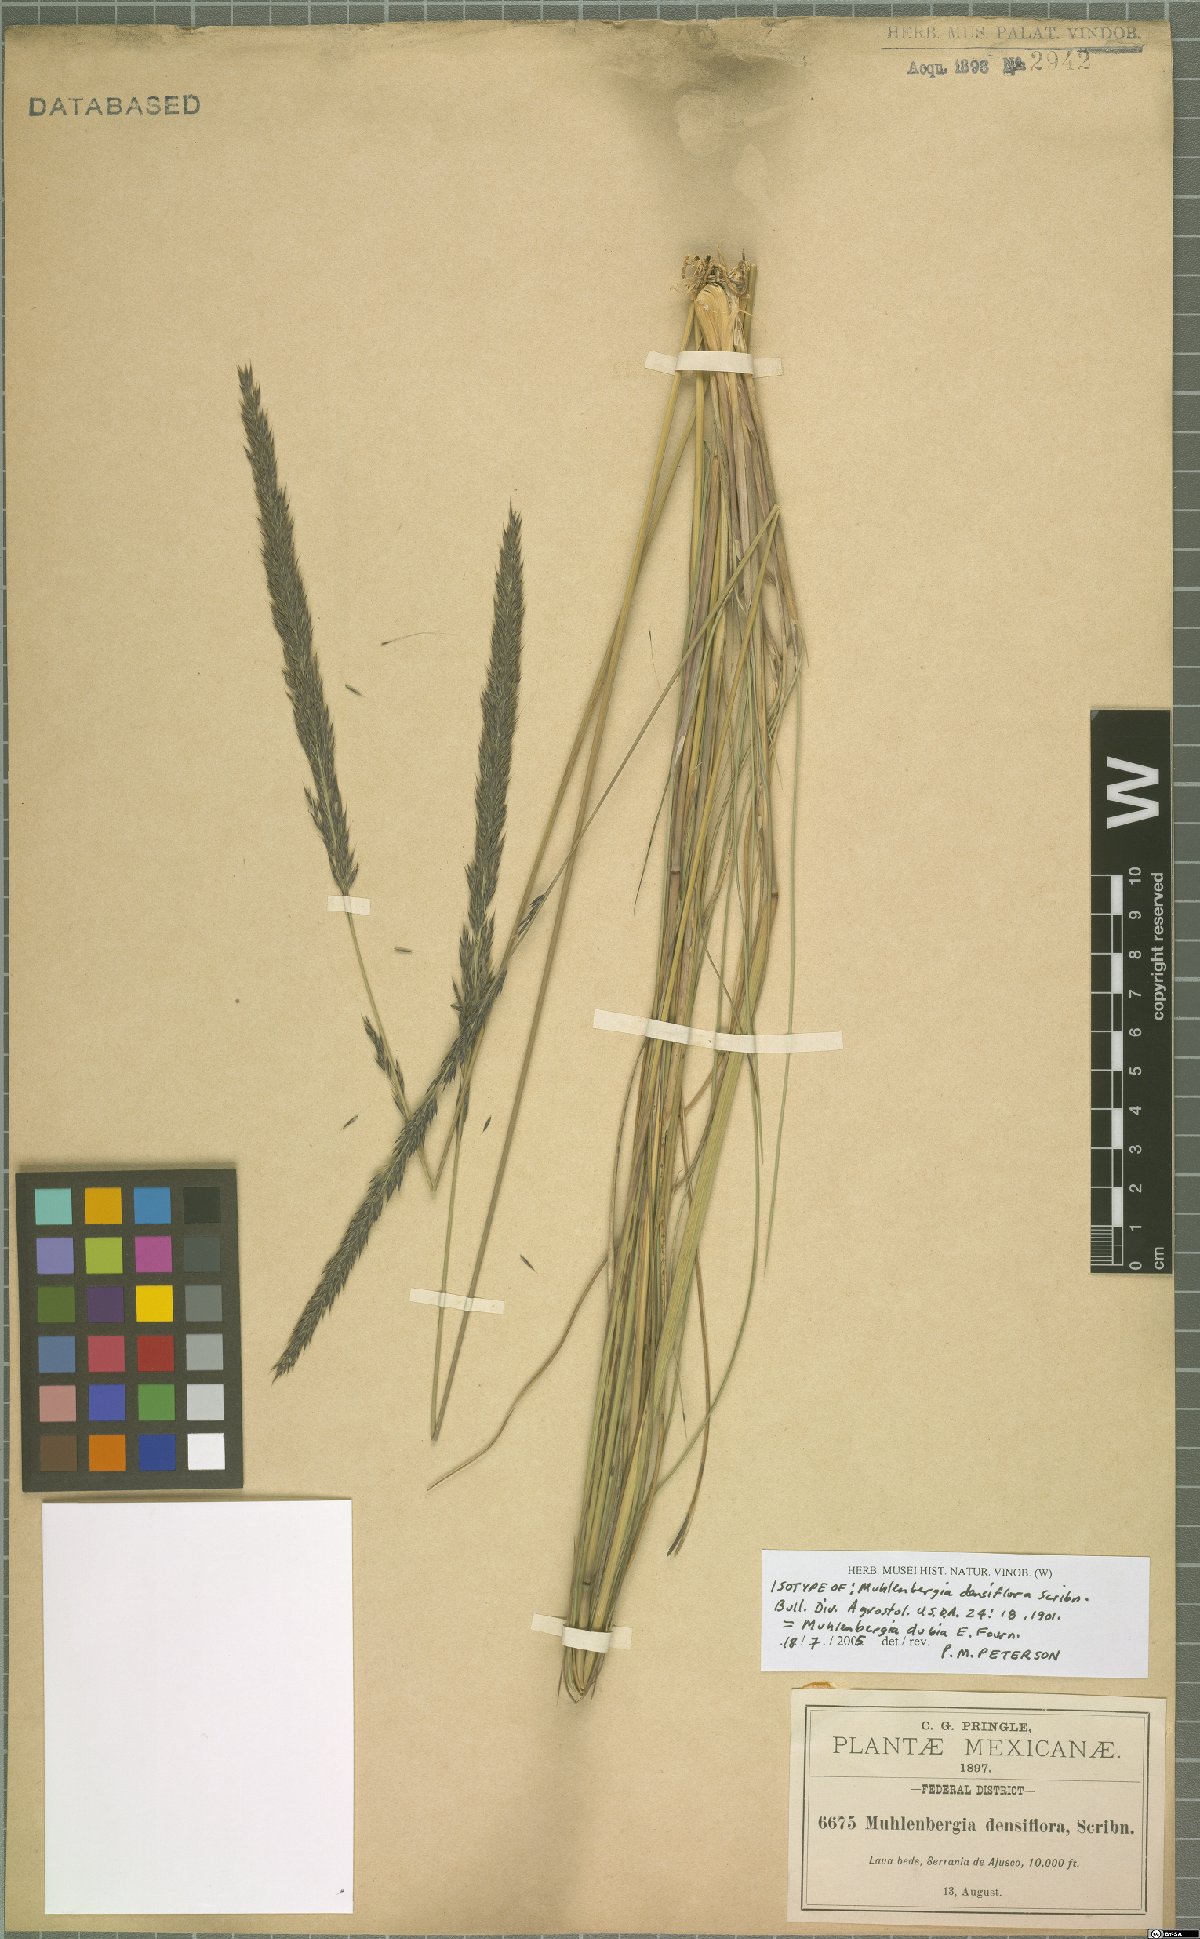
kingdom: Plantae
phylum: Tracheophyta
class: Liliopsida
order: Poales
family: Poaceae
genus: Muhlenbergia
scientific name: Muhlenbergia dubia
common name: Pine muhly
